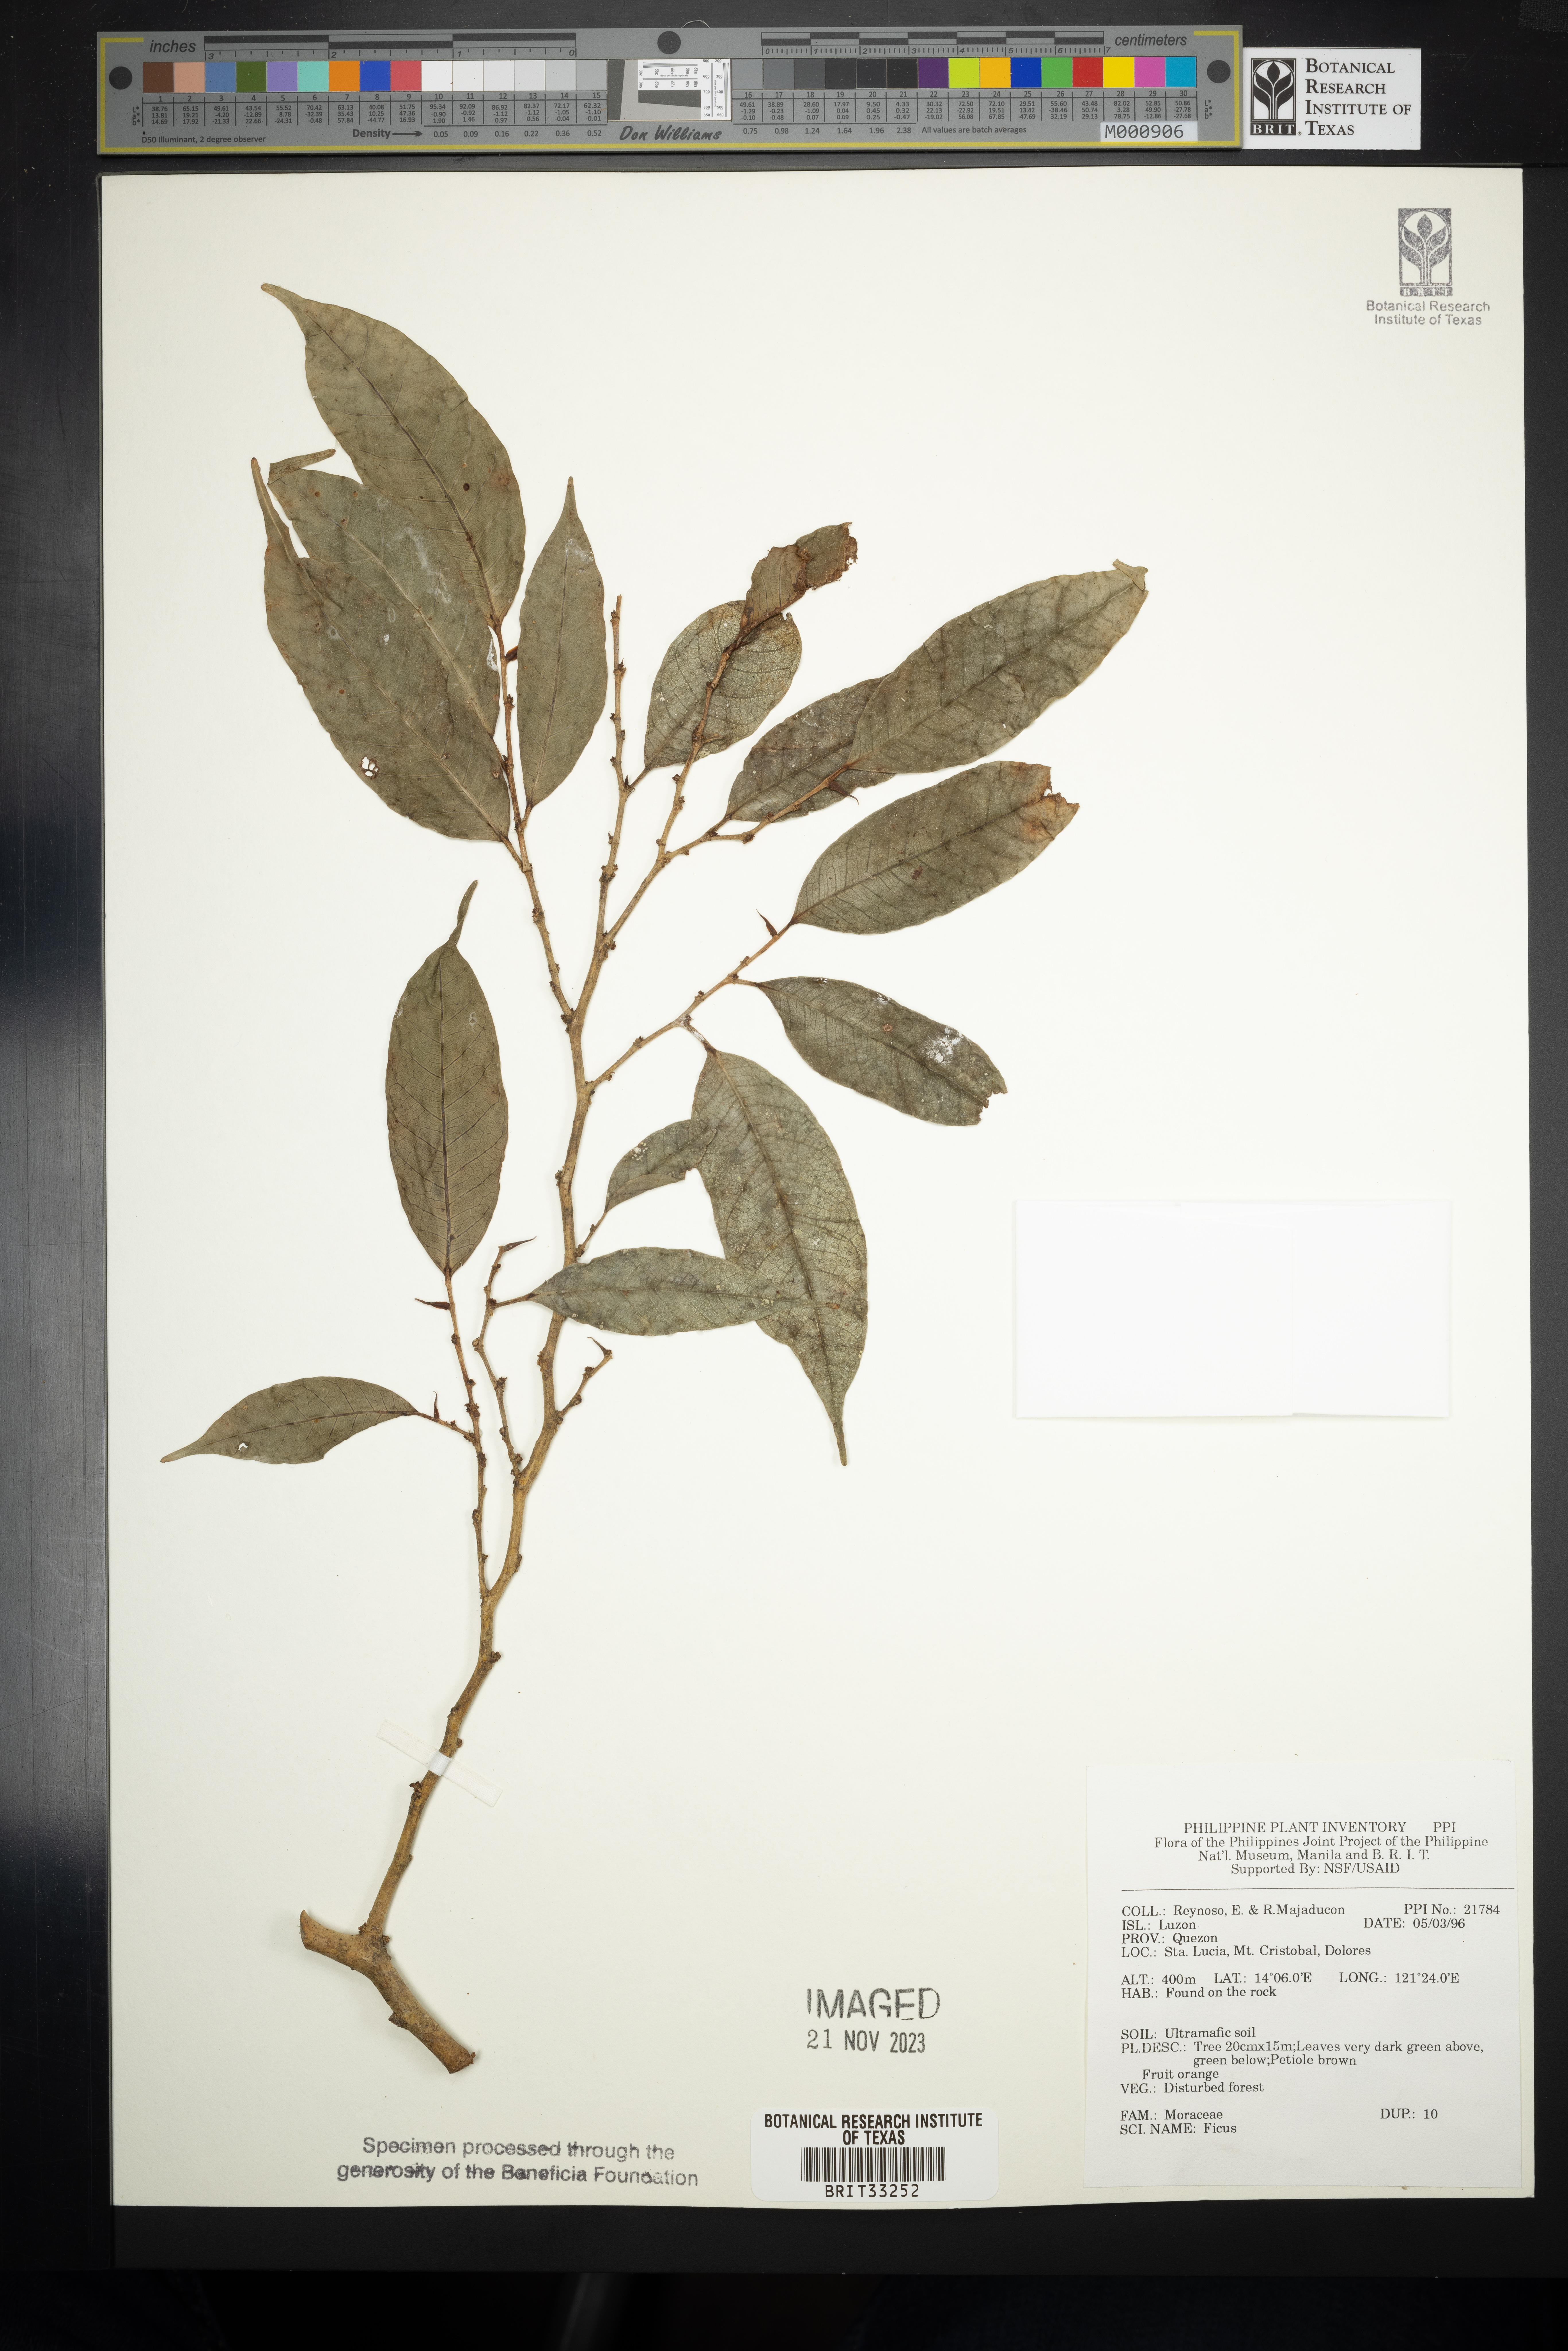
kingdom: Plantae
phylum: Tracheophyta
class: Magnoliopsida
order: Rosales
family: Moraceae
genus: Ficus
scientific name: Ficus
